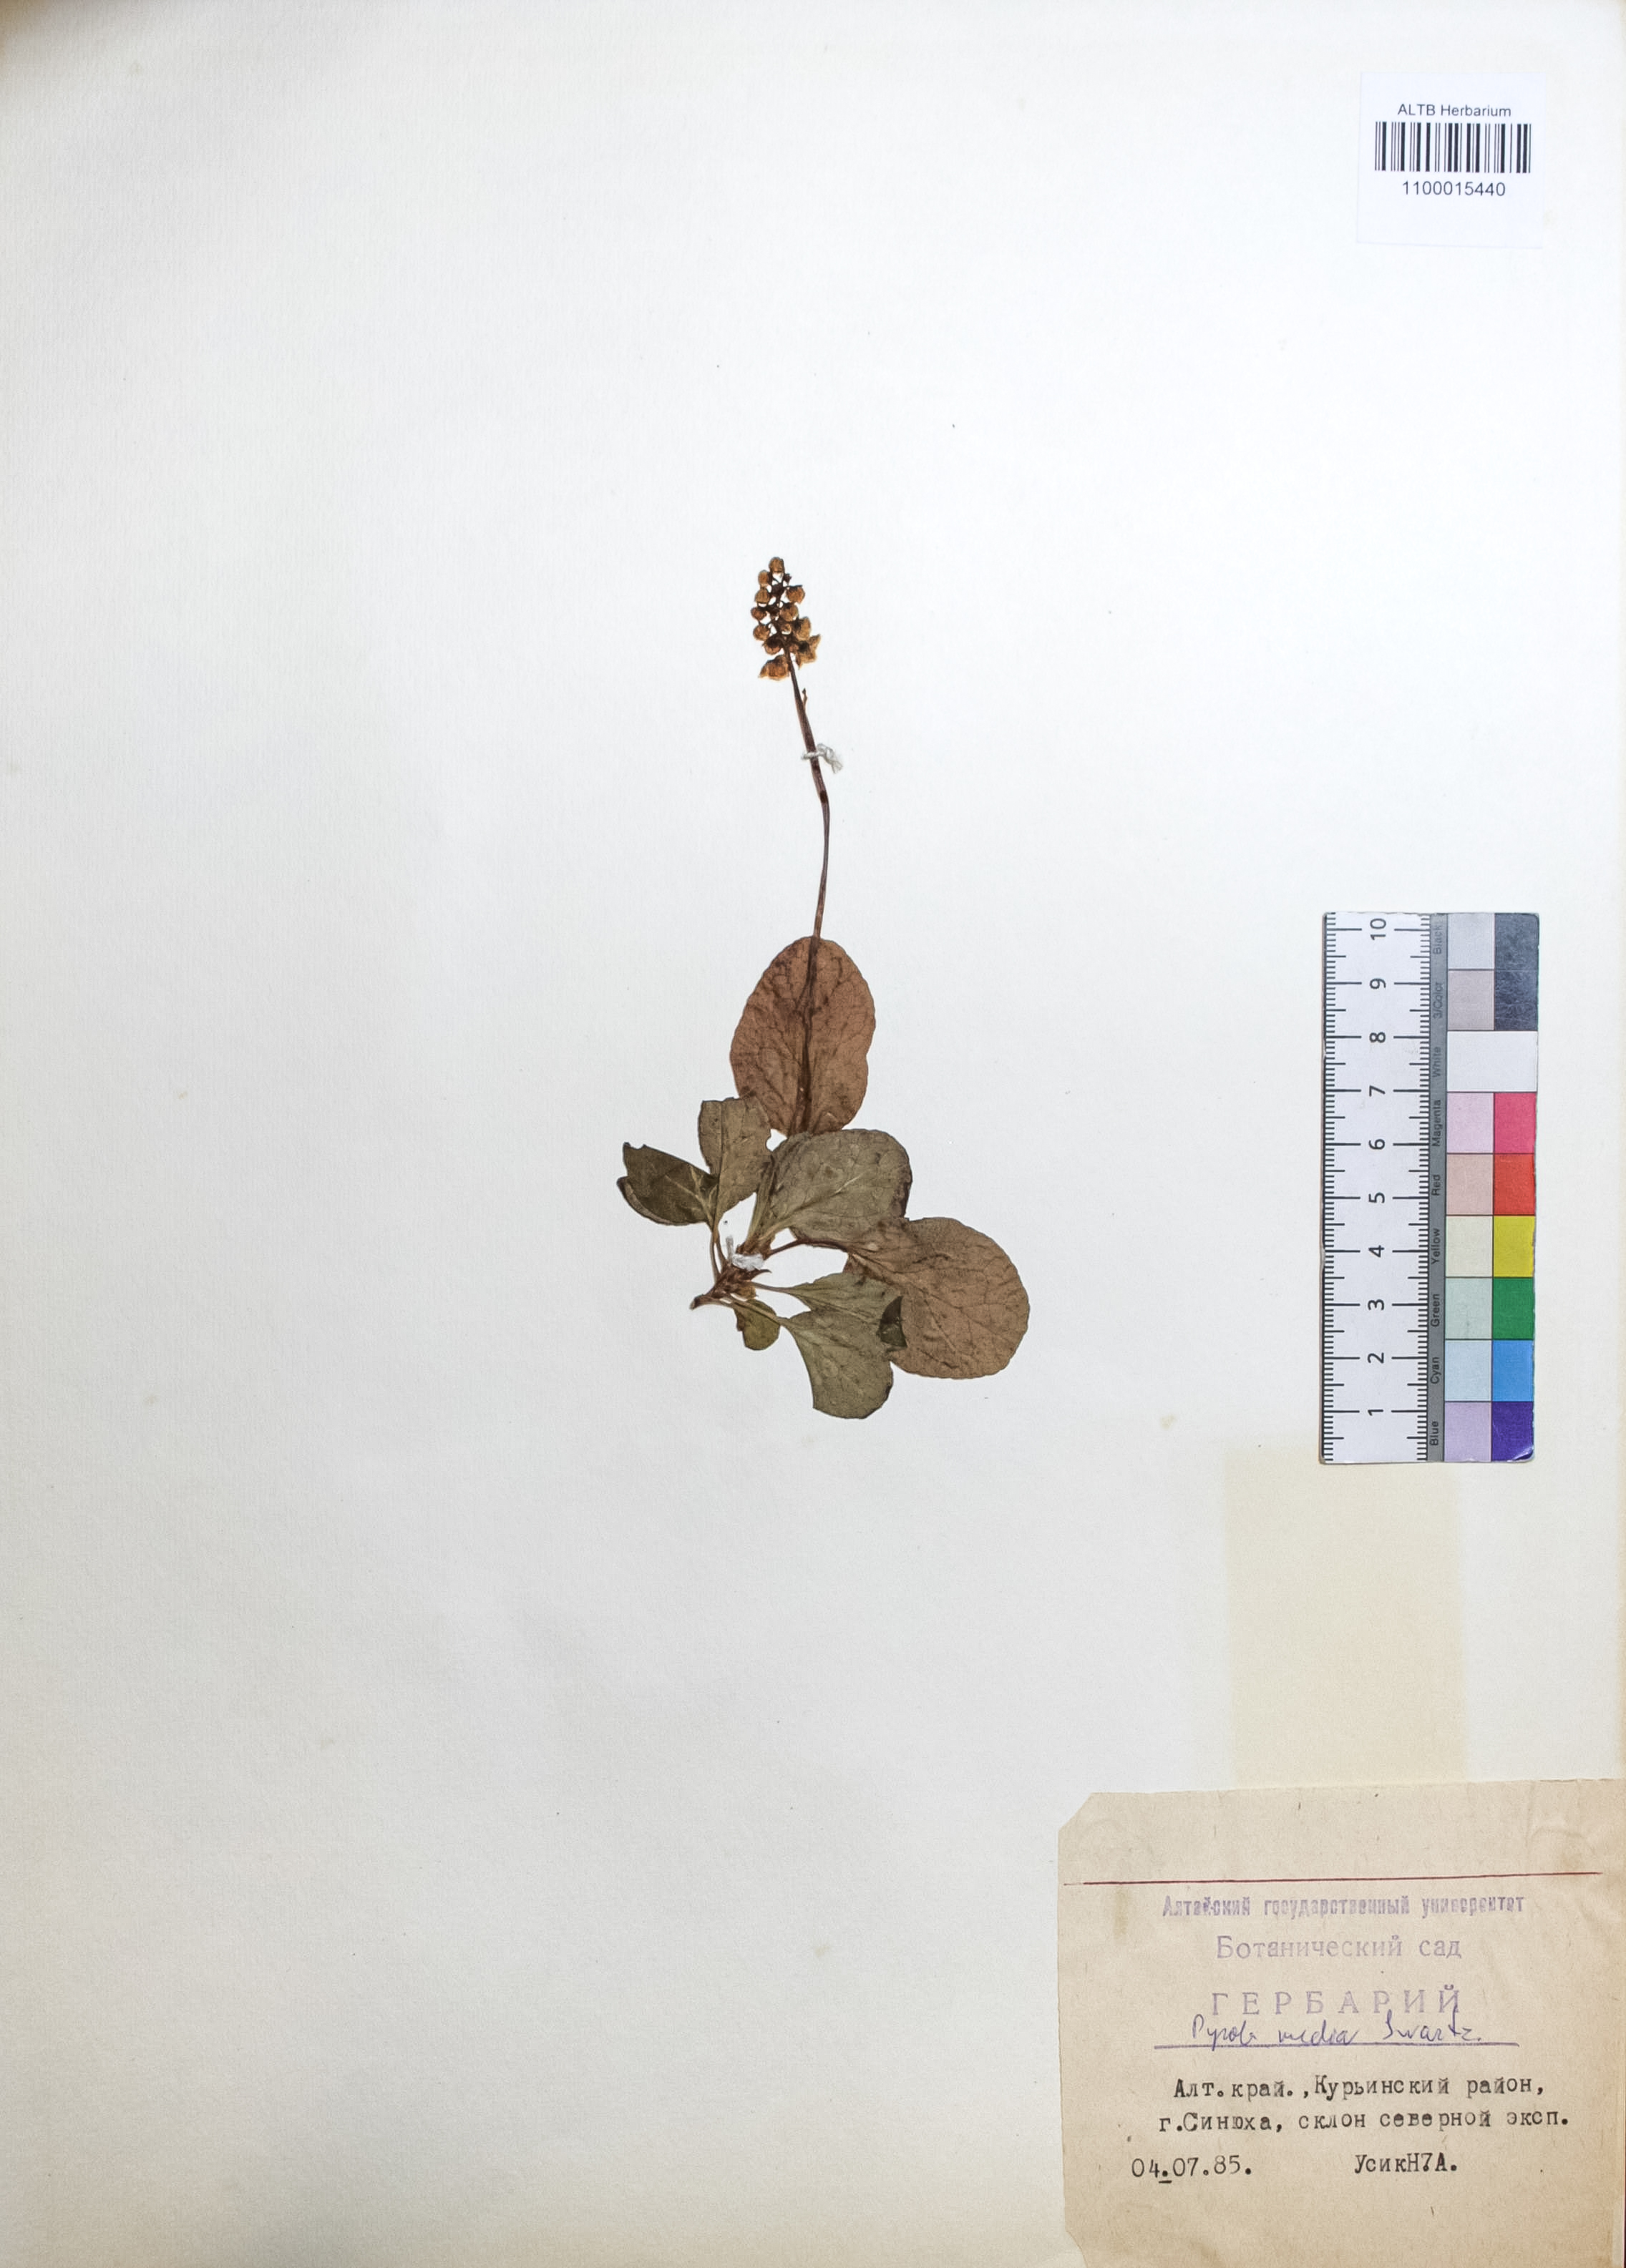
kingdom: Plantae
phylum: Tracheophyta
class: Magnoliopsida
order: Ericales
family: Ericaceae
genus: Pyrola
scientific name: Pyrola media
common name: Intermediate wintergreen
